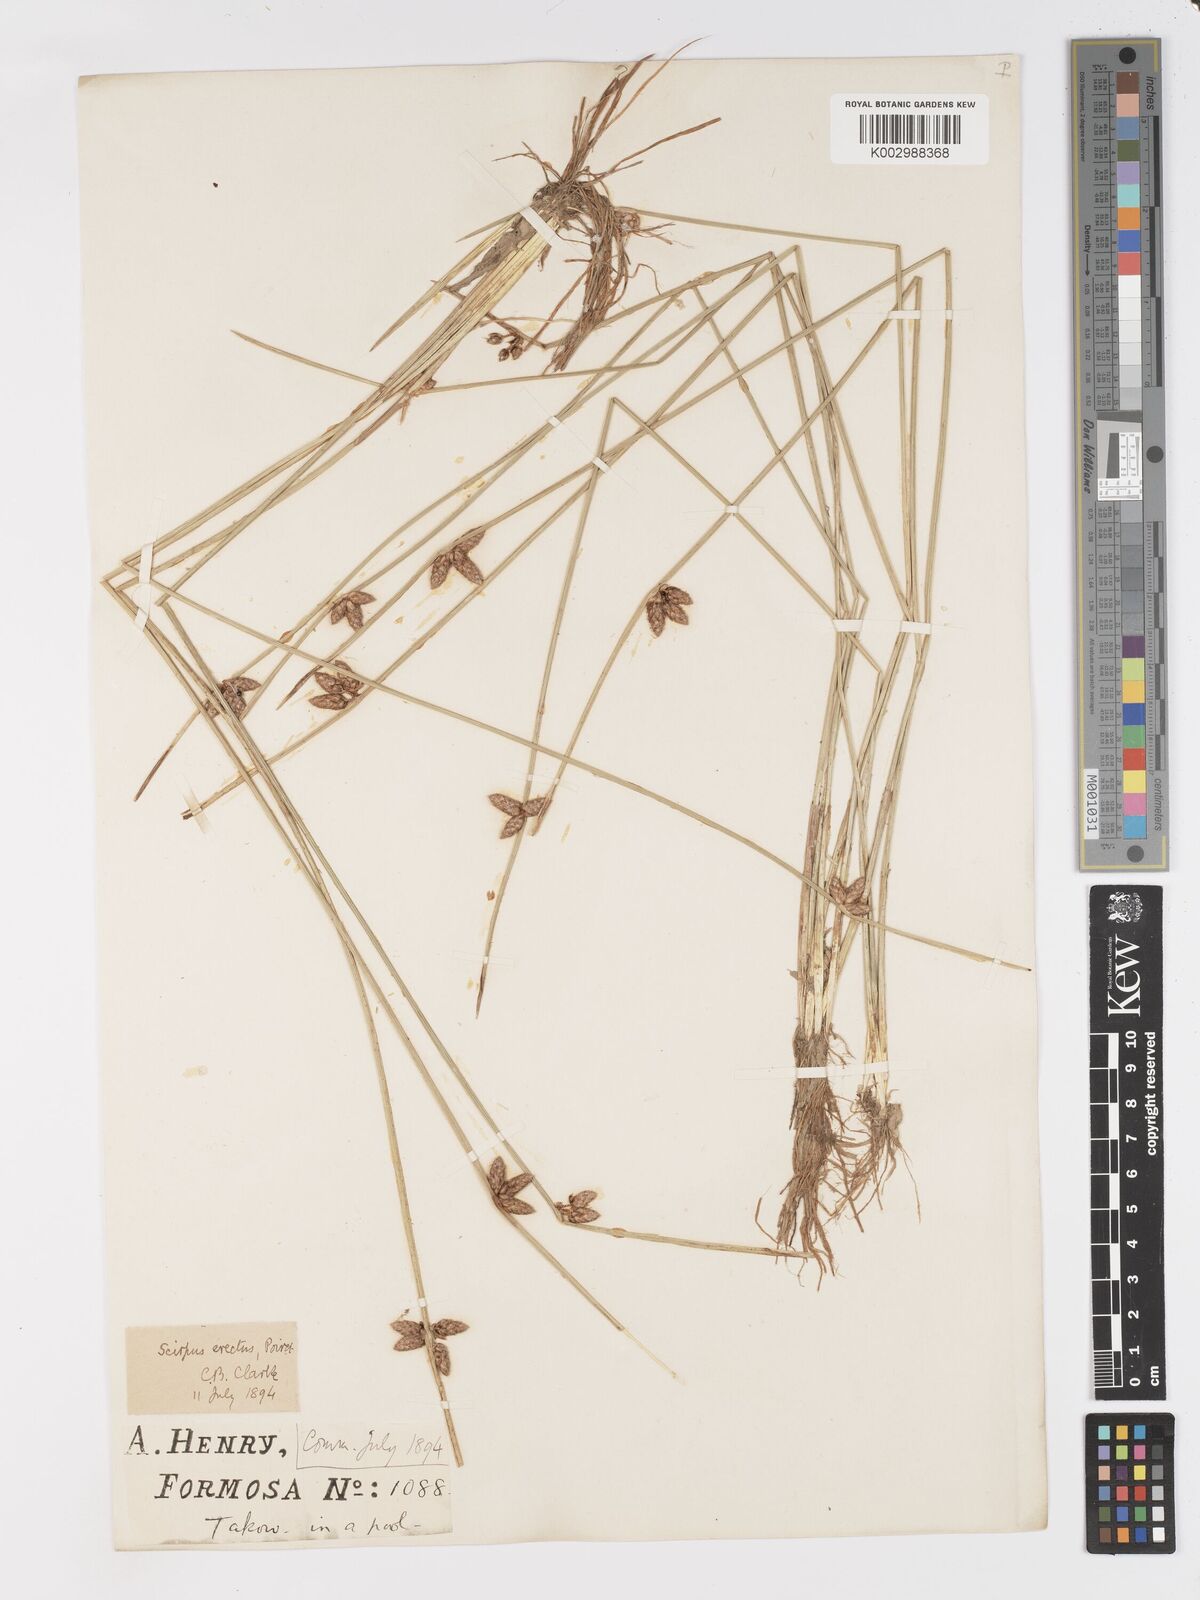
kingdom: Plantae
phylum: Tracheophyta
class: Liliopsida
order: Poales
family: Cyperaceae
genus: Schoenoplectus
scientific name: Schoenoplectus
